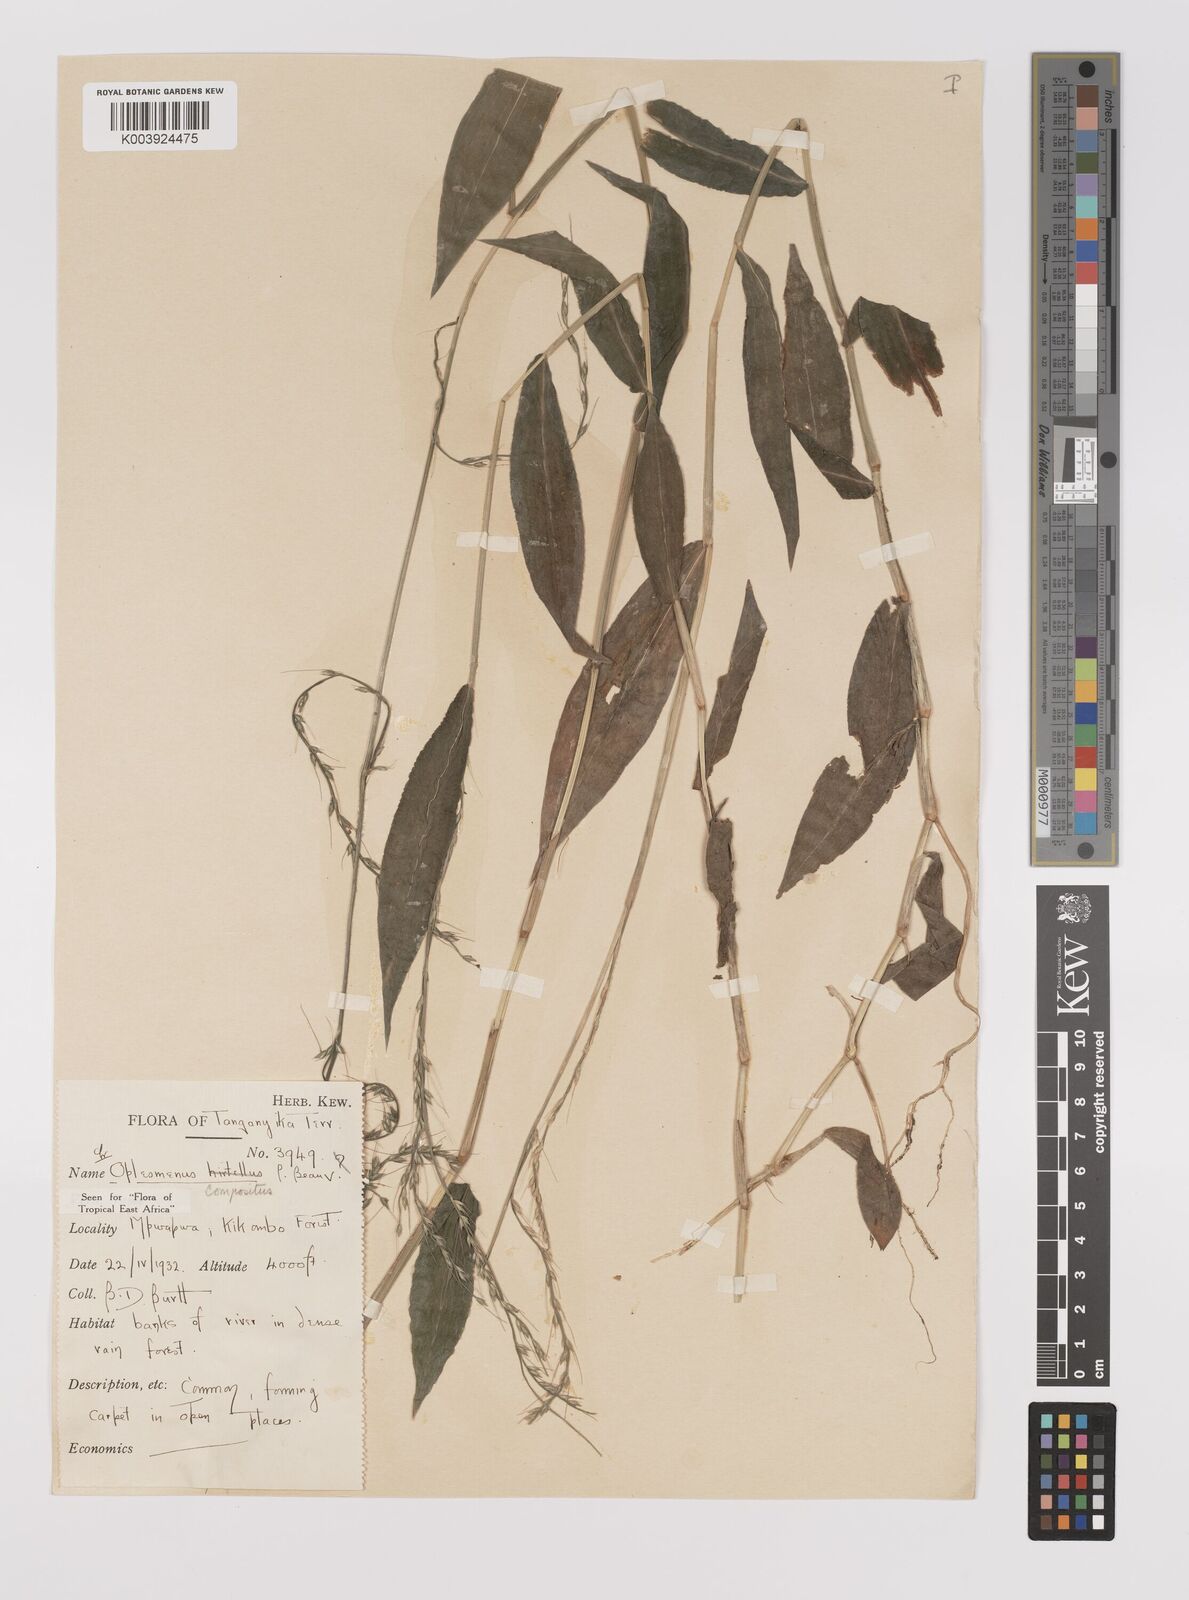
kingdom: Plantae
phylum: Tracheophyta
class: Liliopsida
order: Poales
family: Poaceae
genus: Oplismenus
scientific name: Oplismenus compositus
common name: Running mountain grass
